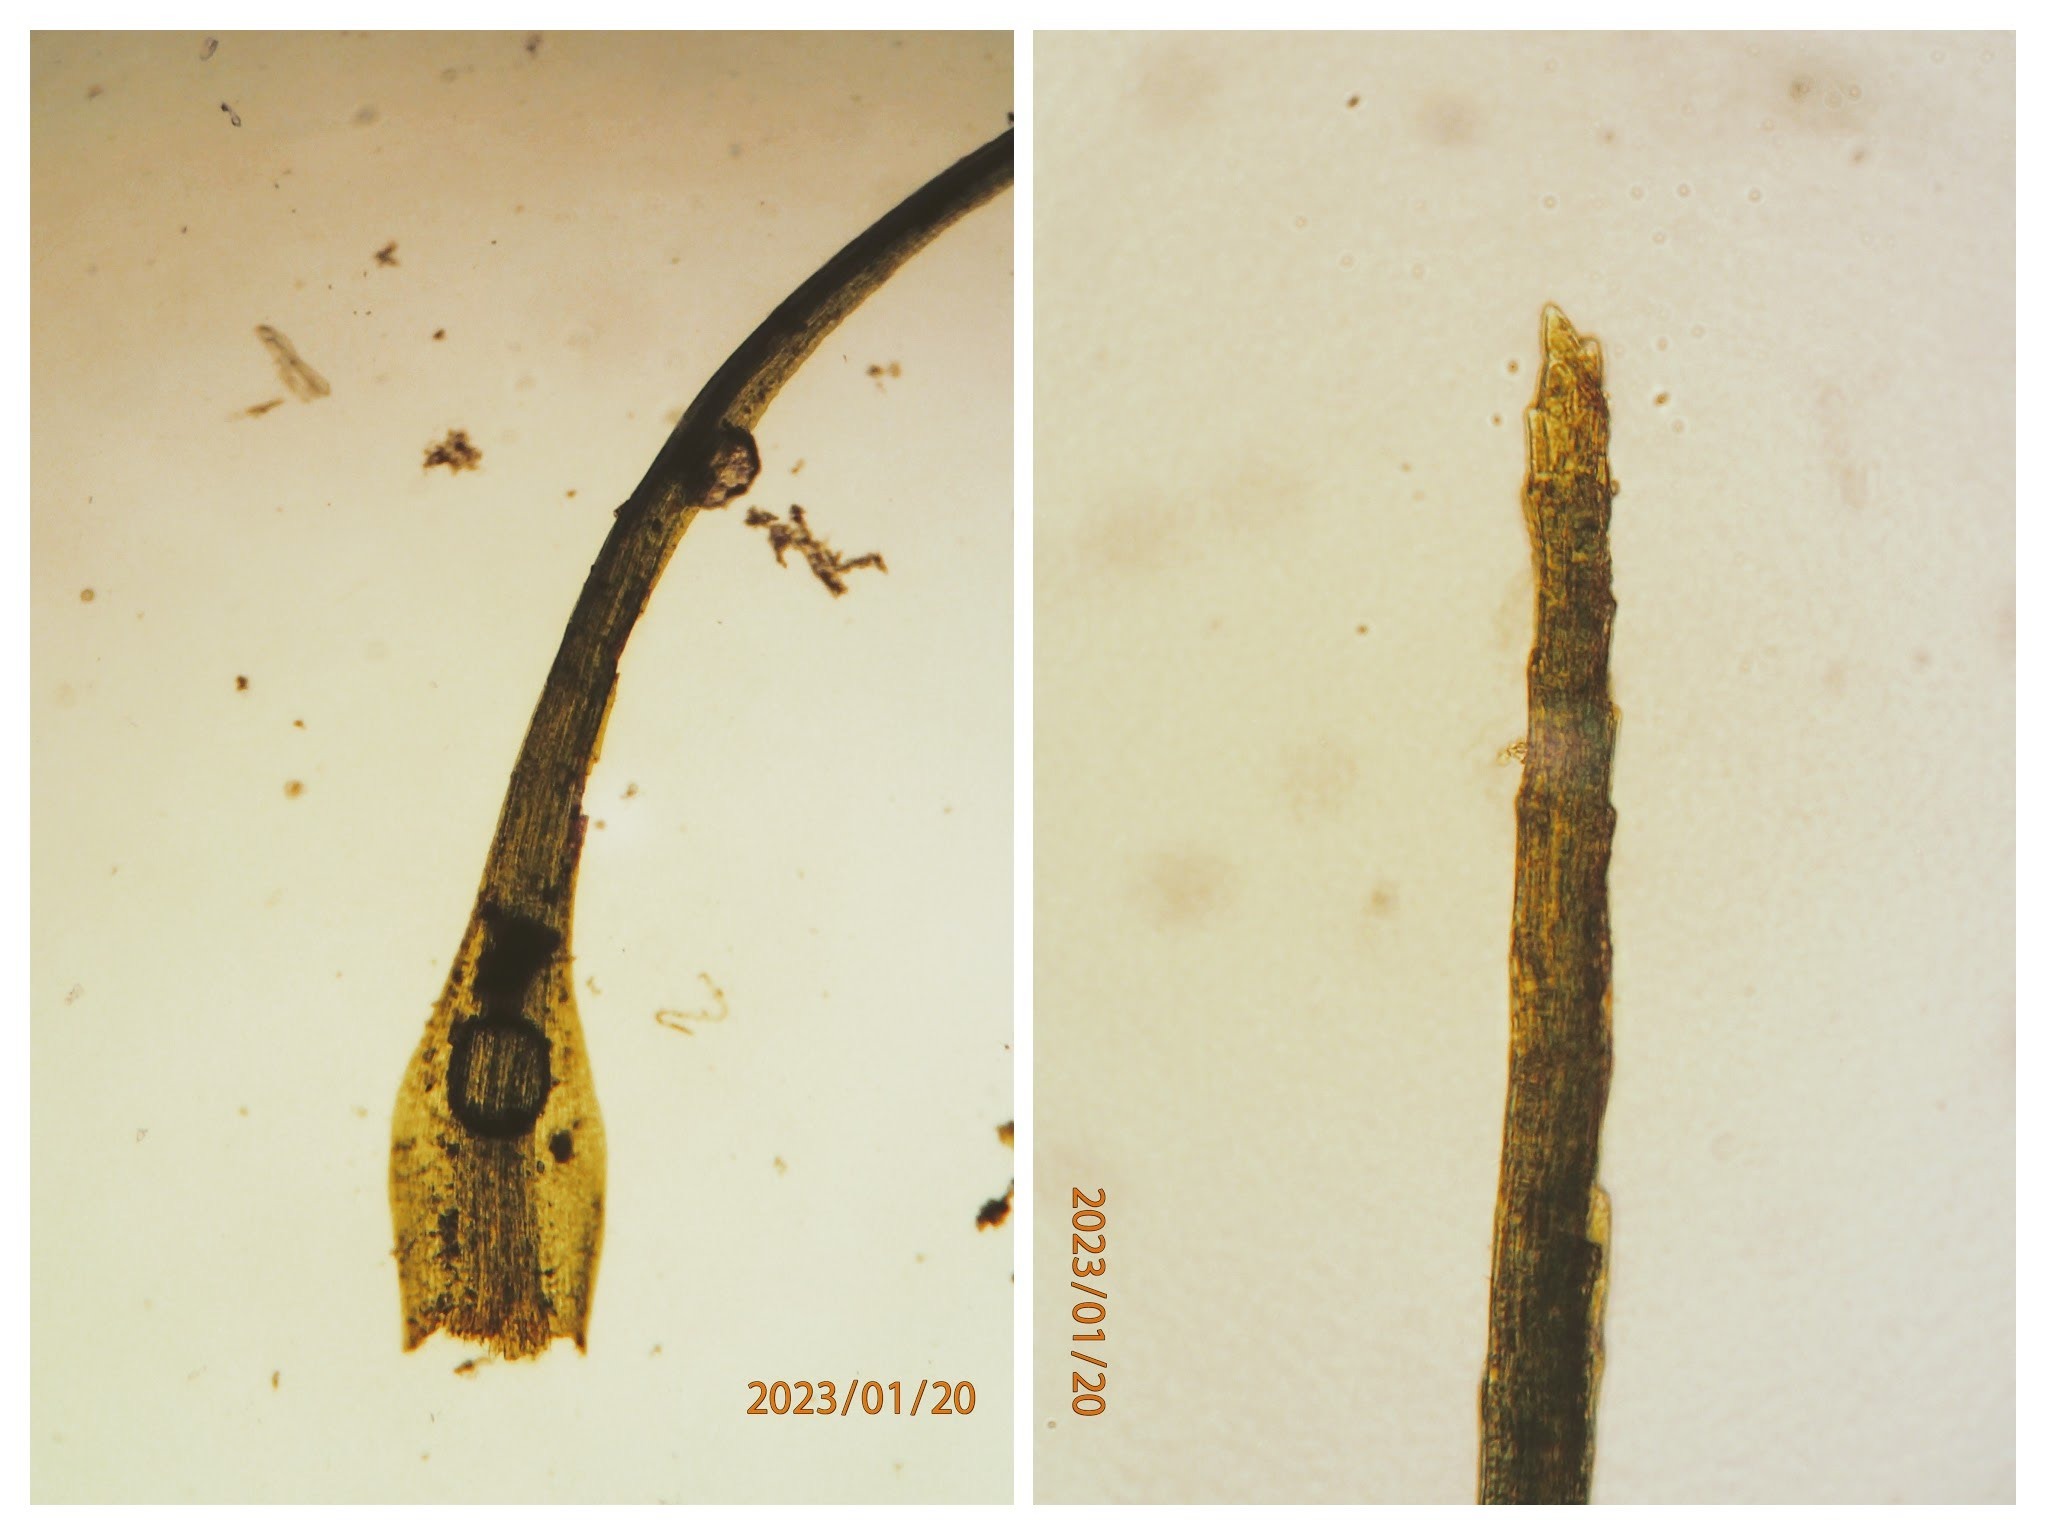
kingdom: Plantae
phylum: Bryophyta
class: Bryopsida
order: Dicranales
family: Dicranellaceae
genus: Dicranella
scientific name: Dicranella heteromalla
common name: Almindelig fløjlsmos
